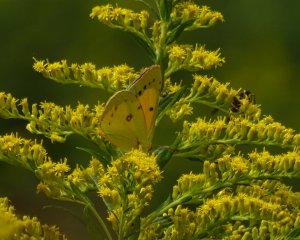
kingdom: Animalia
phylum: Arthropoda
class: Insecta
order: Lepidoptera
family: Pieridae
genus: Colias
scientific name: Colias eurytheme
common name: Orange Sulphur
